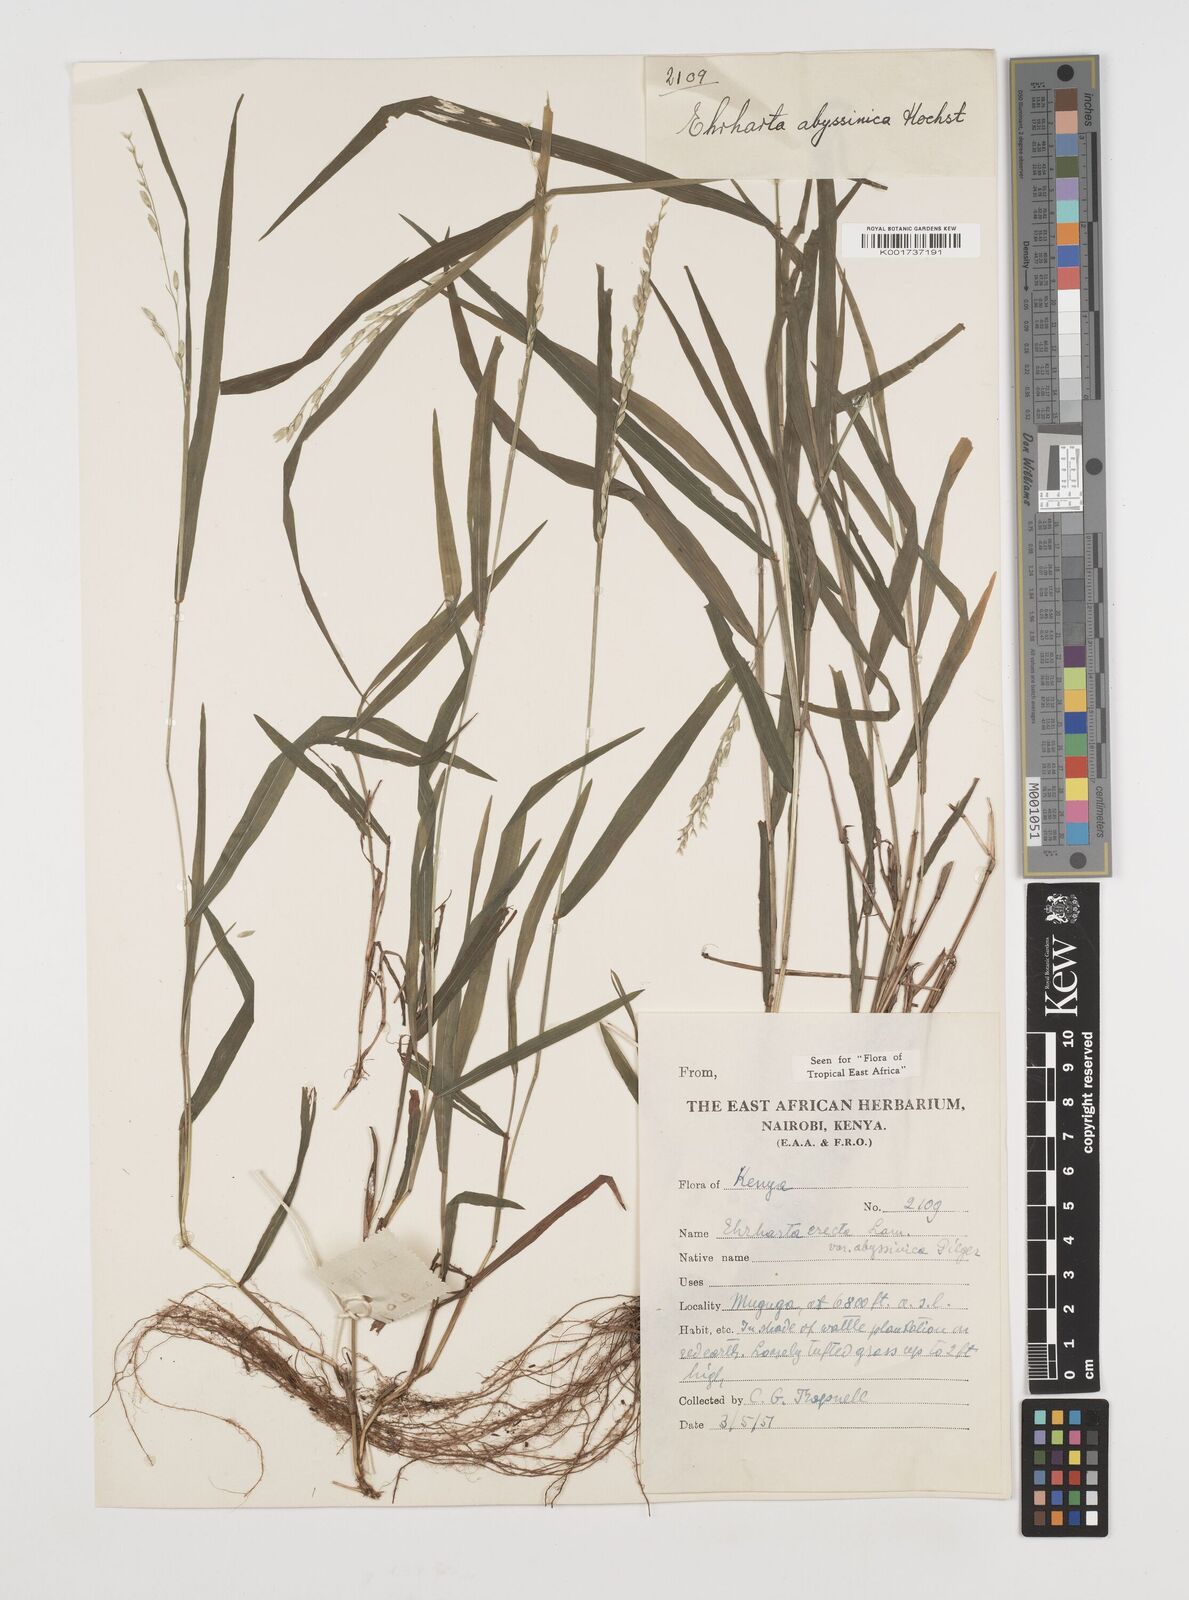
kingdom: Plantae
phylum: Tracheophyta
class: Liliopsida
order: Poales
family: Poaceae
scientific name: Poaceae
